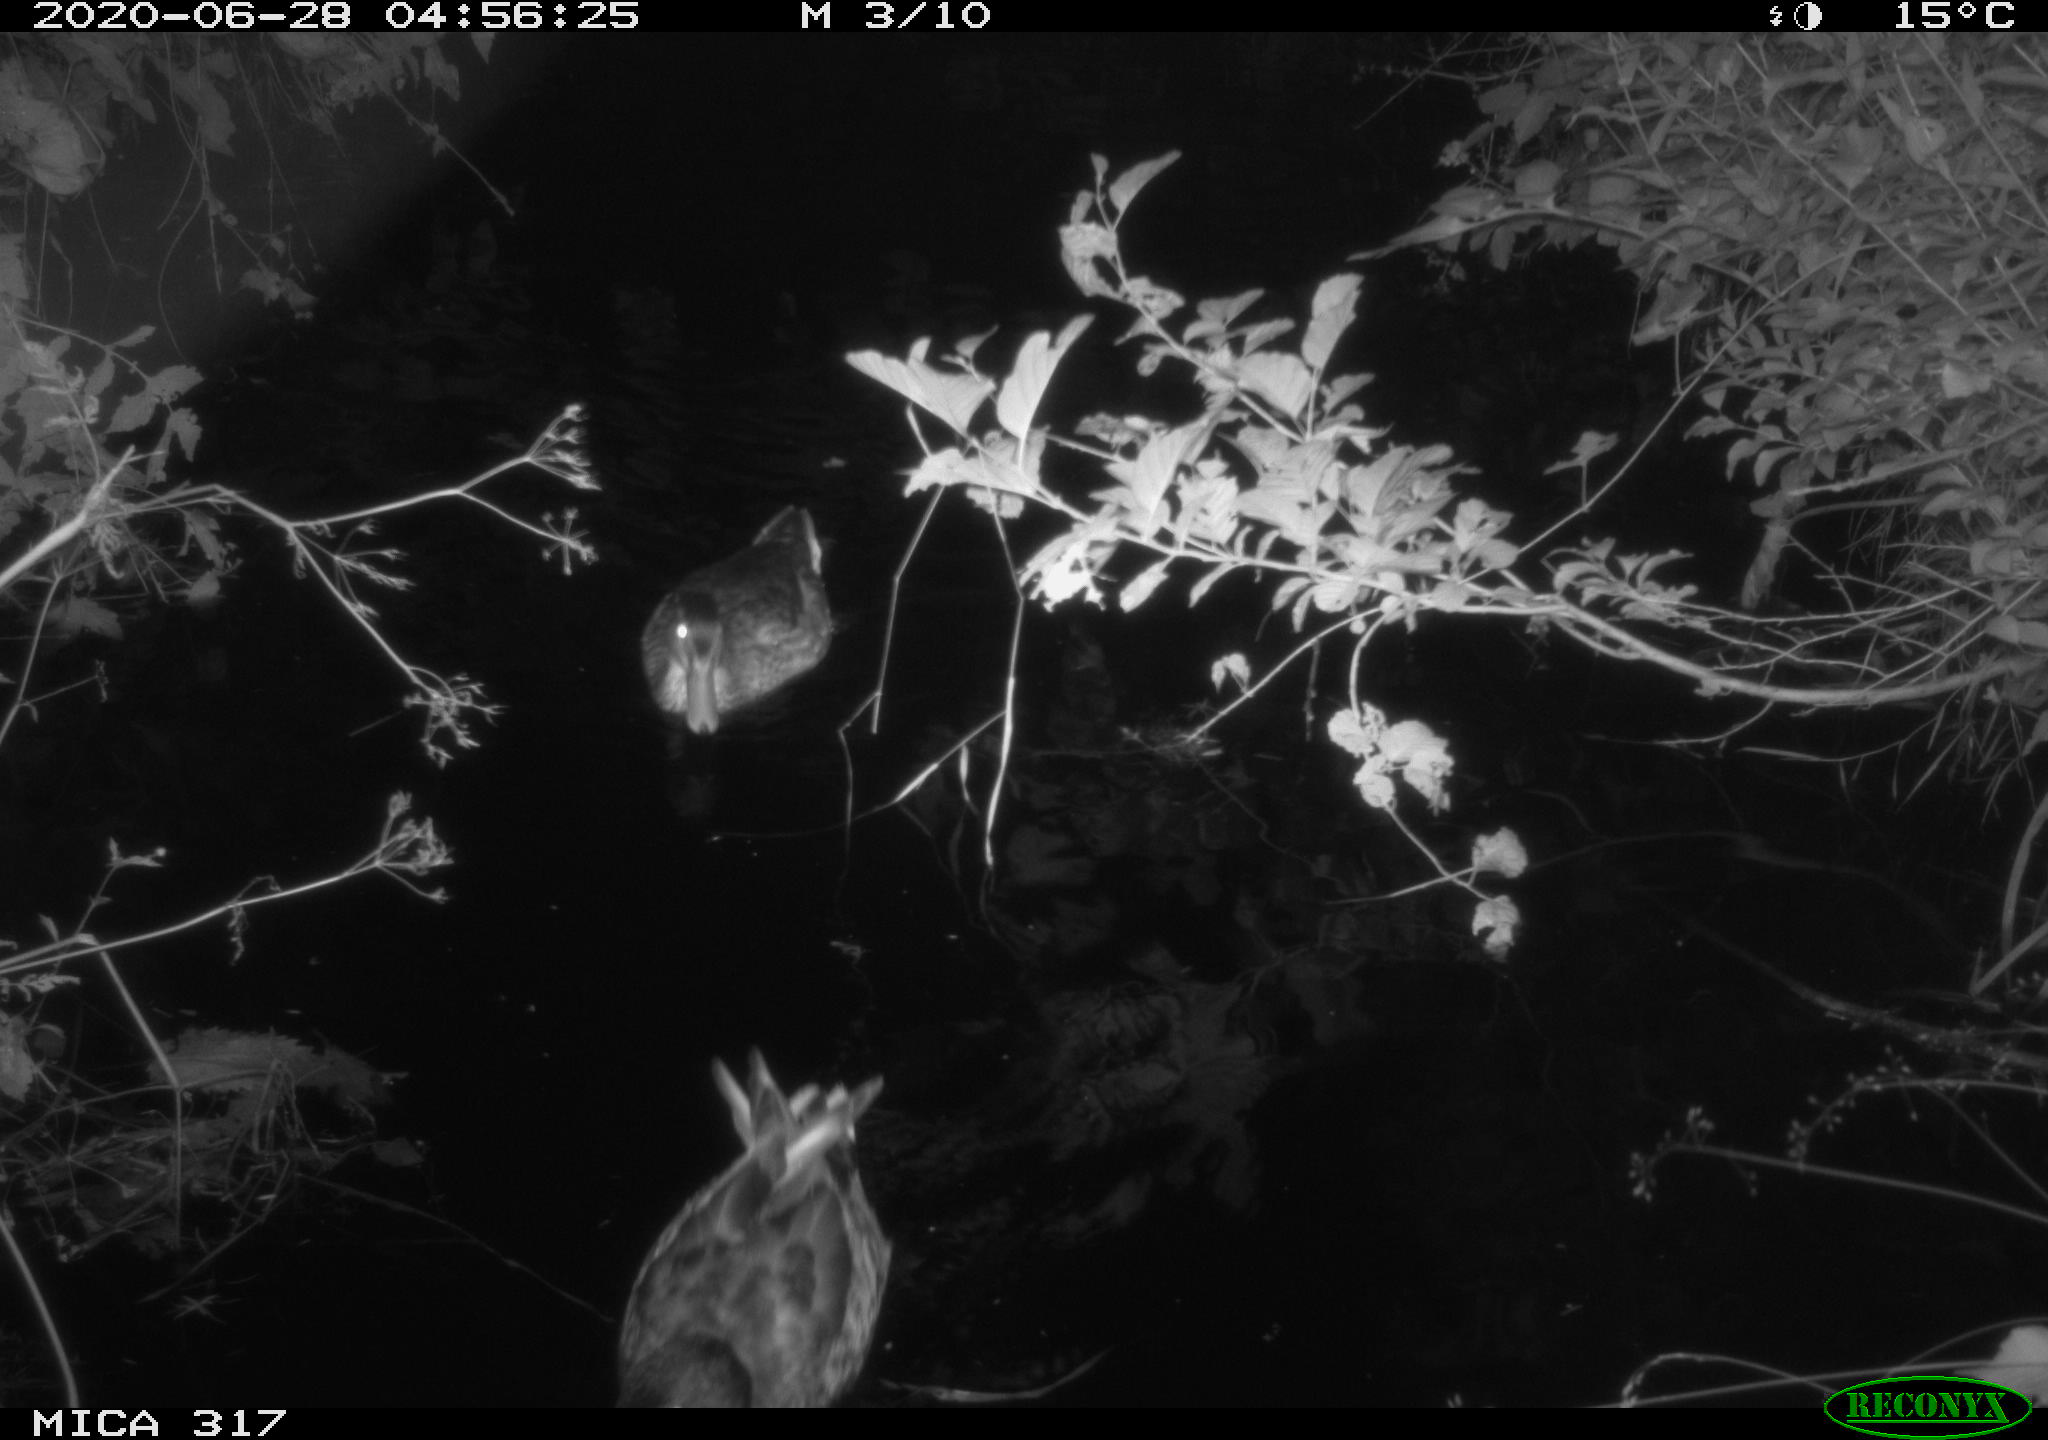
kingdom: Animalia
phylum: Chordata
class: Aves
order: Anseriformes
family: Anatidae
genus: Anas
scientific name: Anas platyrhynchos
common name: Mallard
